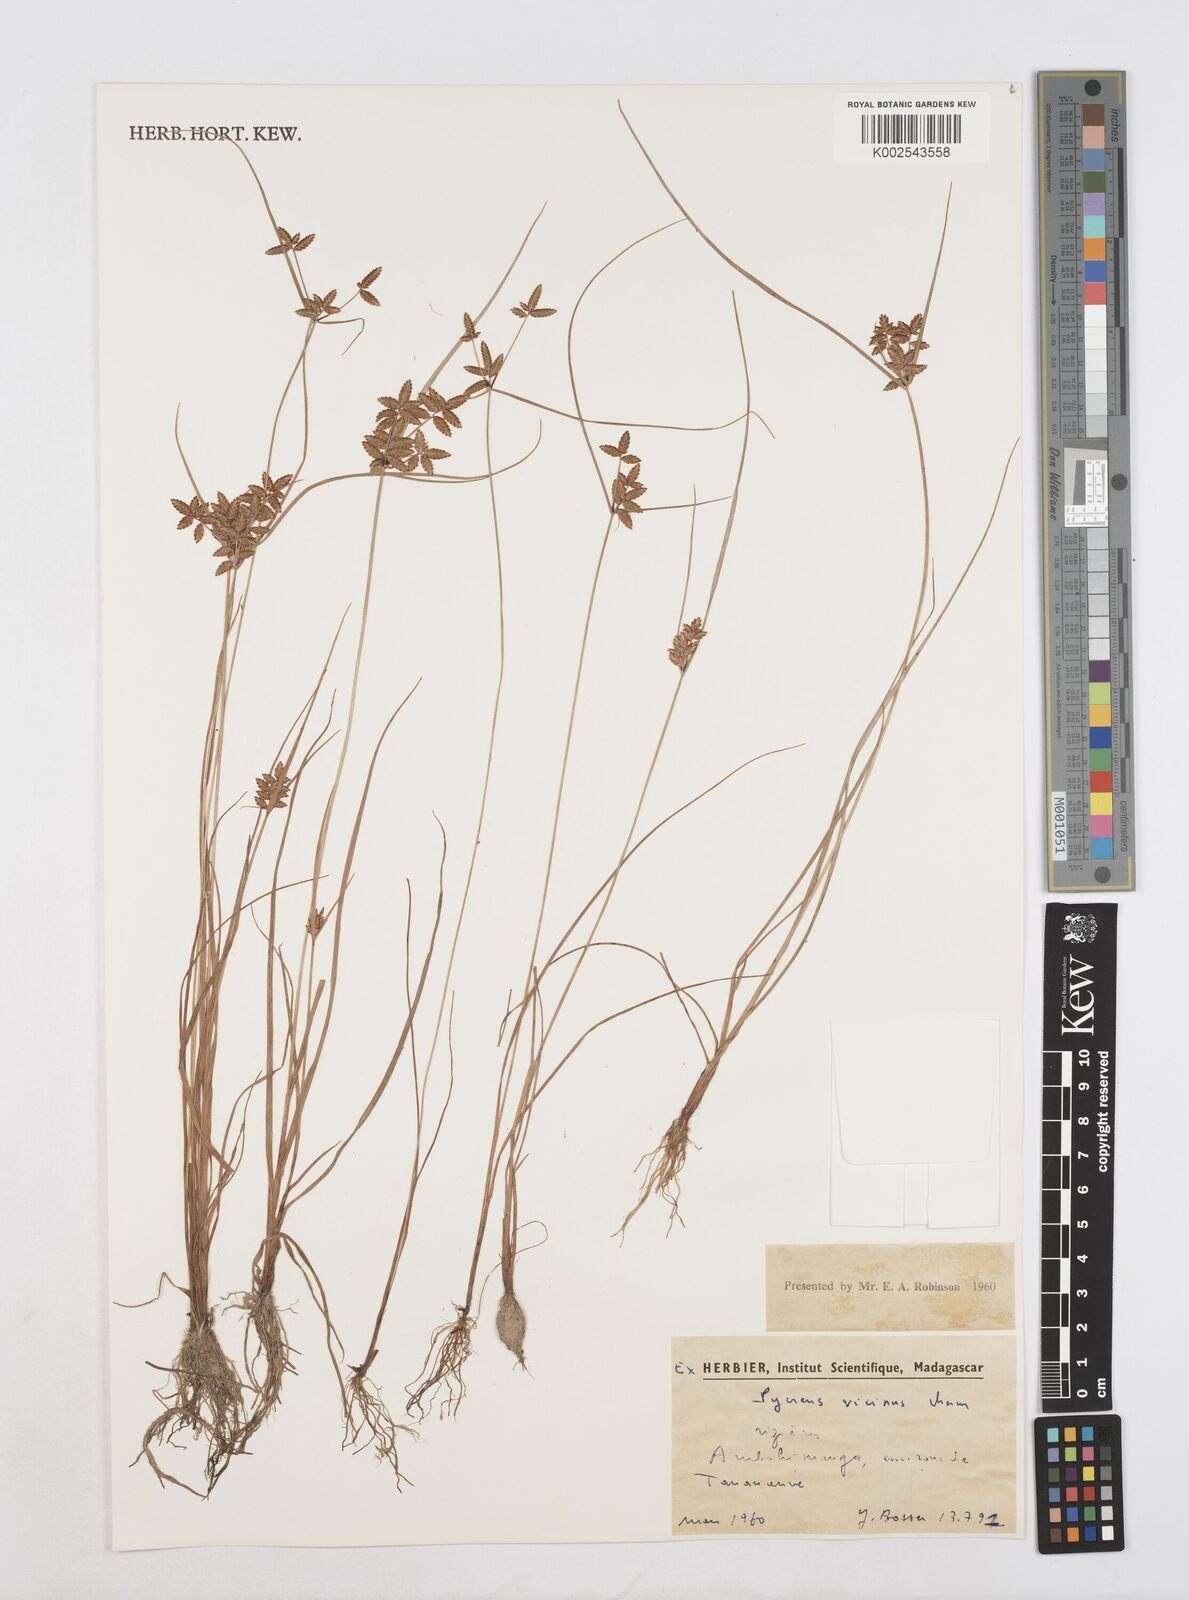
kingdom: Plantae
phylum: Tracheophyta
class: Liliopsida
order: Poales
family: Cyperaceae
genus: Cyperus
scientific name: Cyperus
